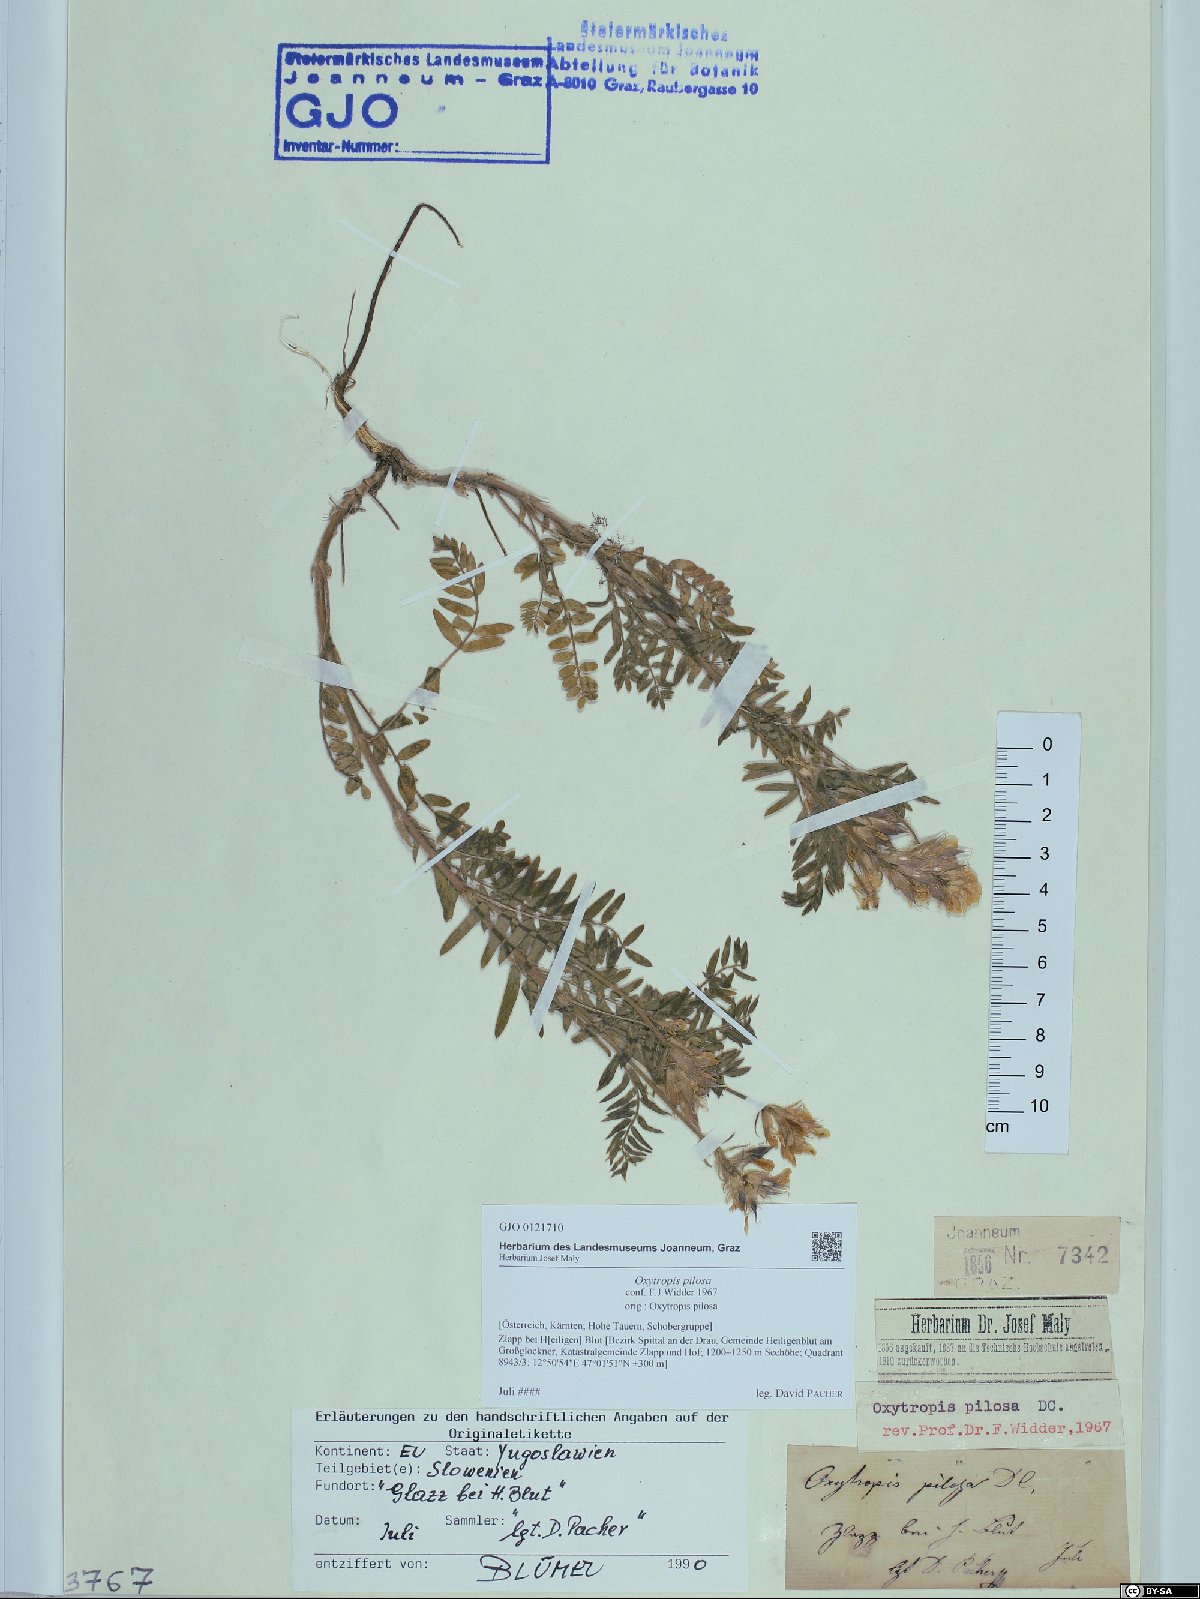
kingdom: Plantae
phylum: Tracheophyta
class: Magnoliopsida
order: Fabales
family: Fabaceae
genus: Oxytropis
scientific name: Oxytropis pilosa
